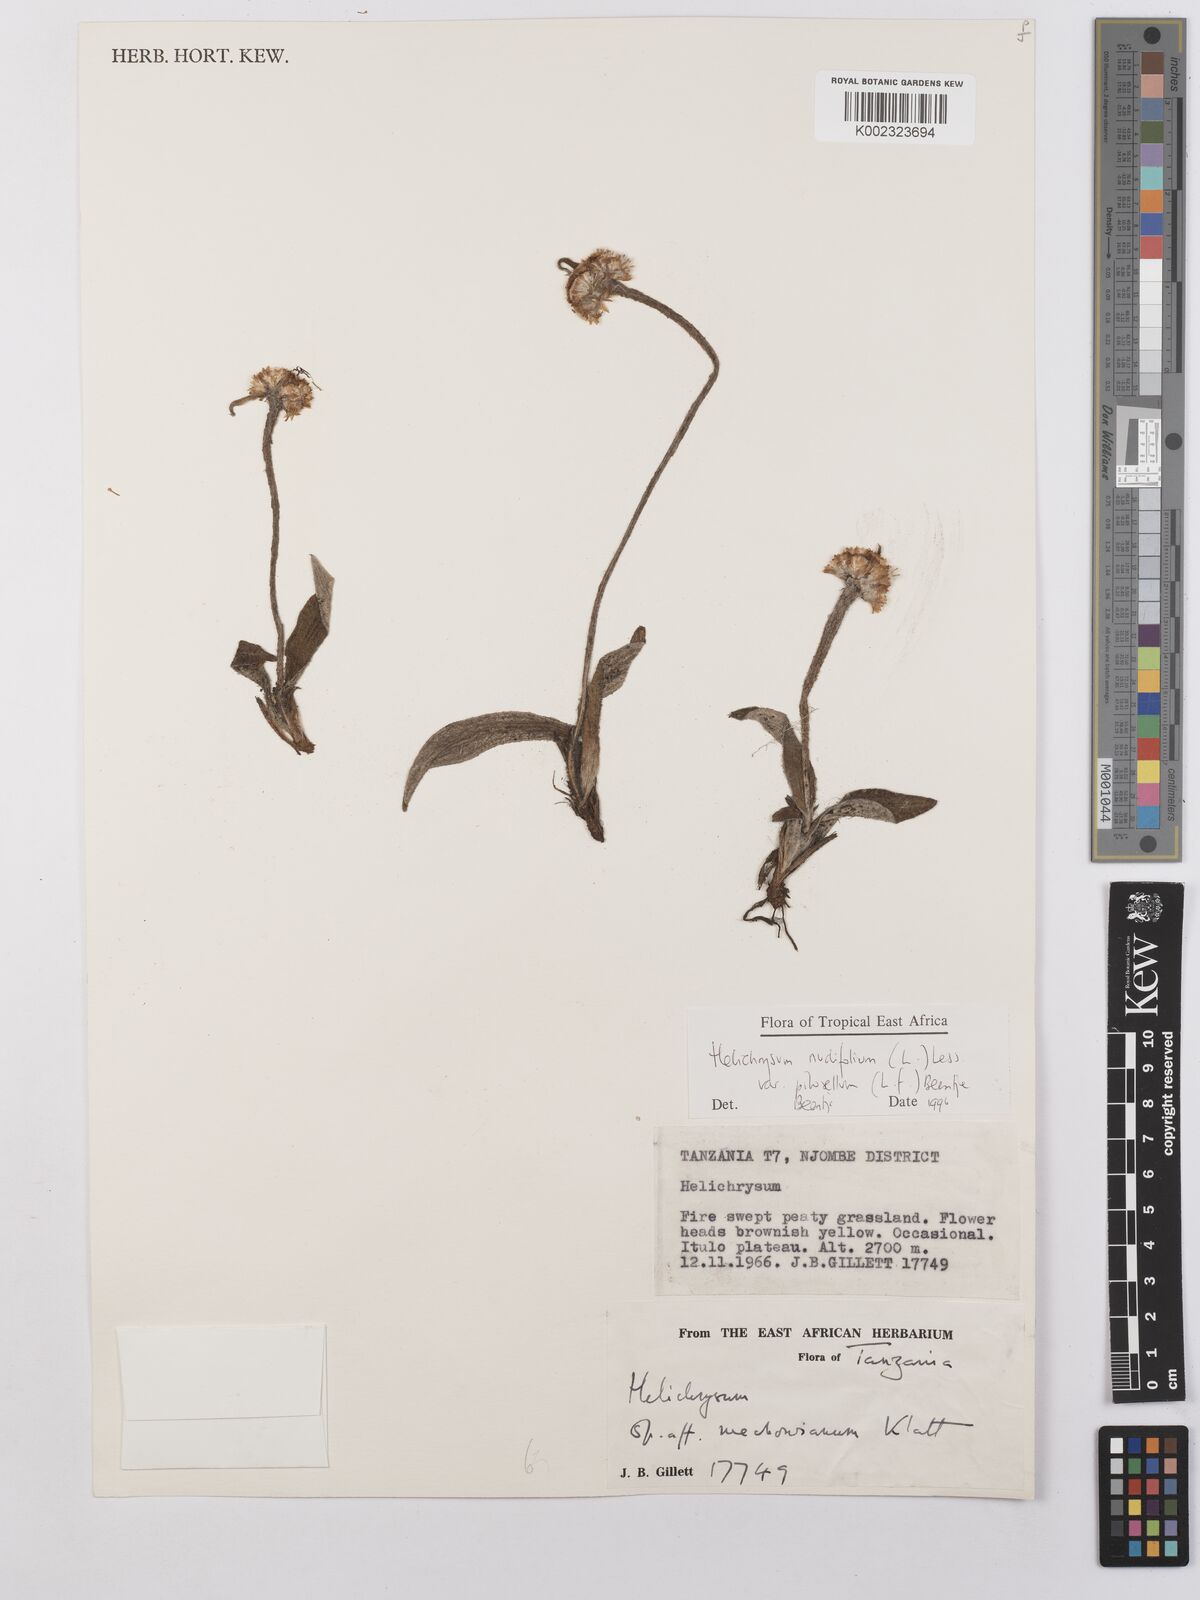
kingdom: Plantae
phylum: Tracheophyta
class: Magnoliopsida
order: Asterales
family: Asteraceae
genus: Helichrysum
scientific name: Helichrysum nudifolium
